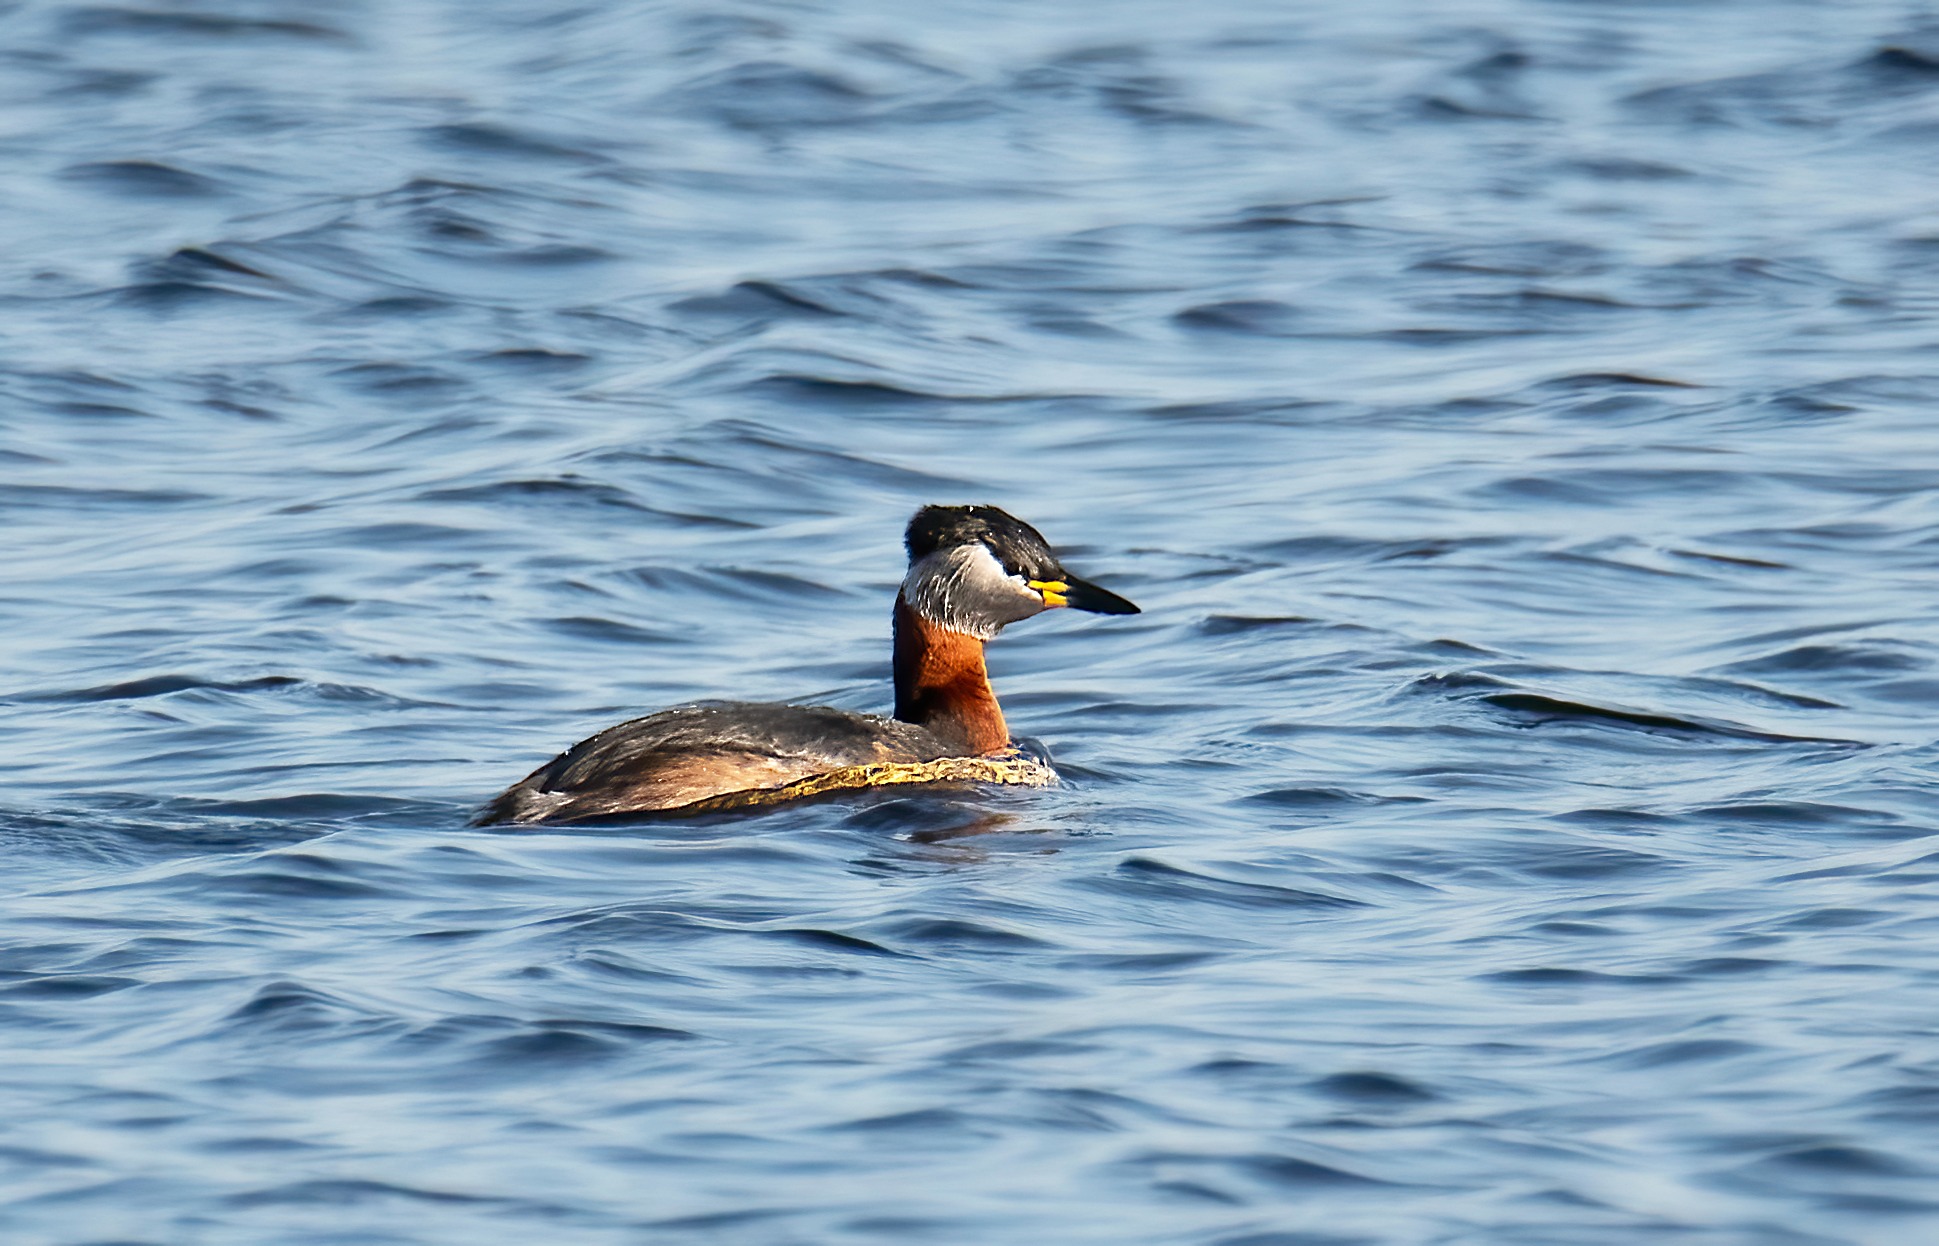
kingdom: Animalia
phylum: Chordata
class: Aves
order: Podicipediformes
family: Podicipedidae
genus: Podiceps
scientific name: Podiceps grisegena
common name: Gråstrubet lappedykker
